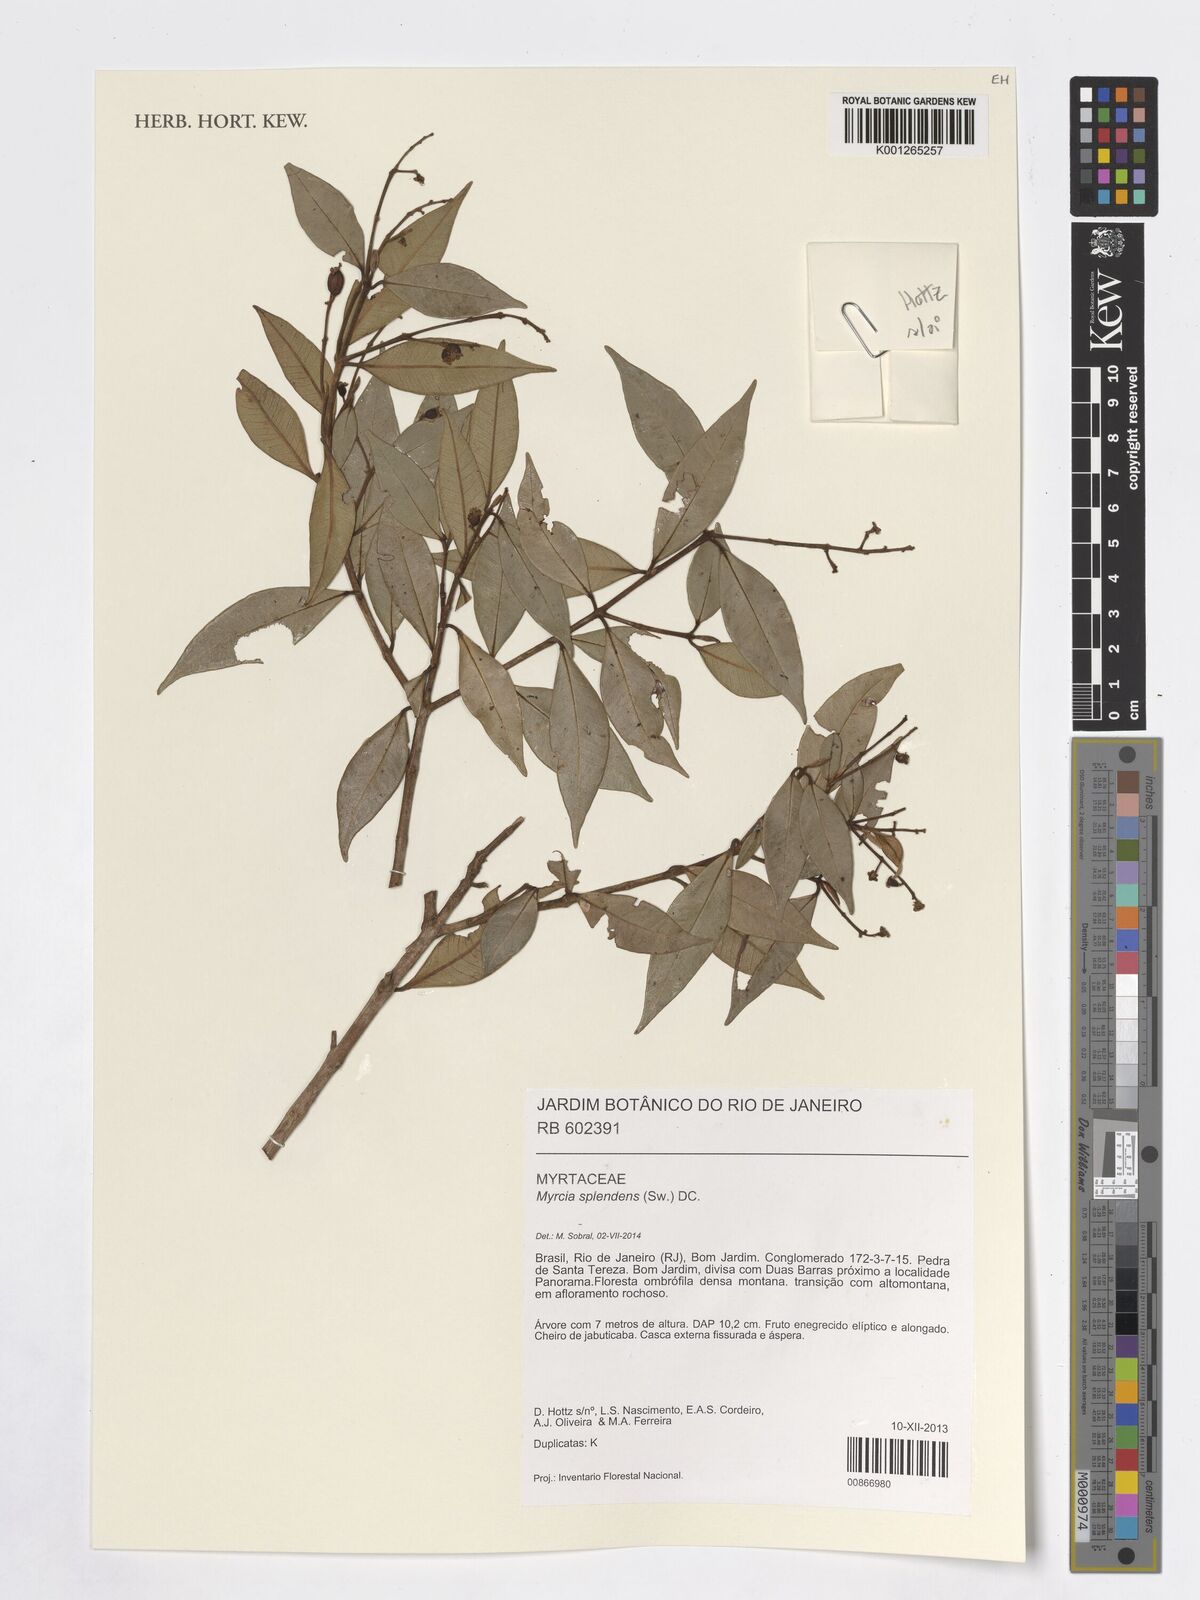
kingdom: Plantae
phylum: Tracheophyta
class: Magnoliopsida
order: Myrtales
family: Myrtaceae
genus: Myrcia
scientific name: Myrcia splendens
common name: Surinam cherry
